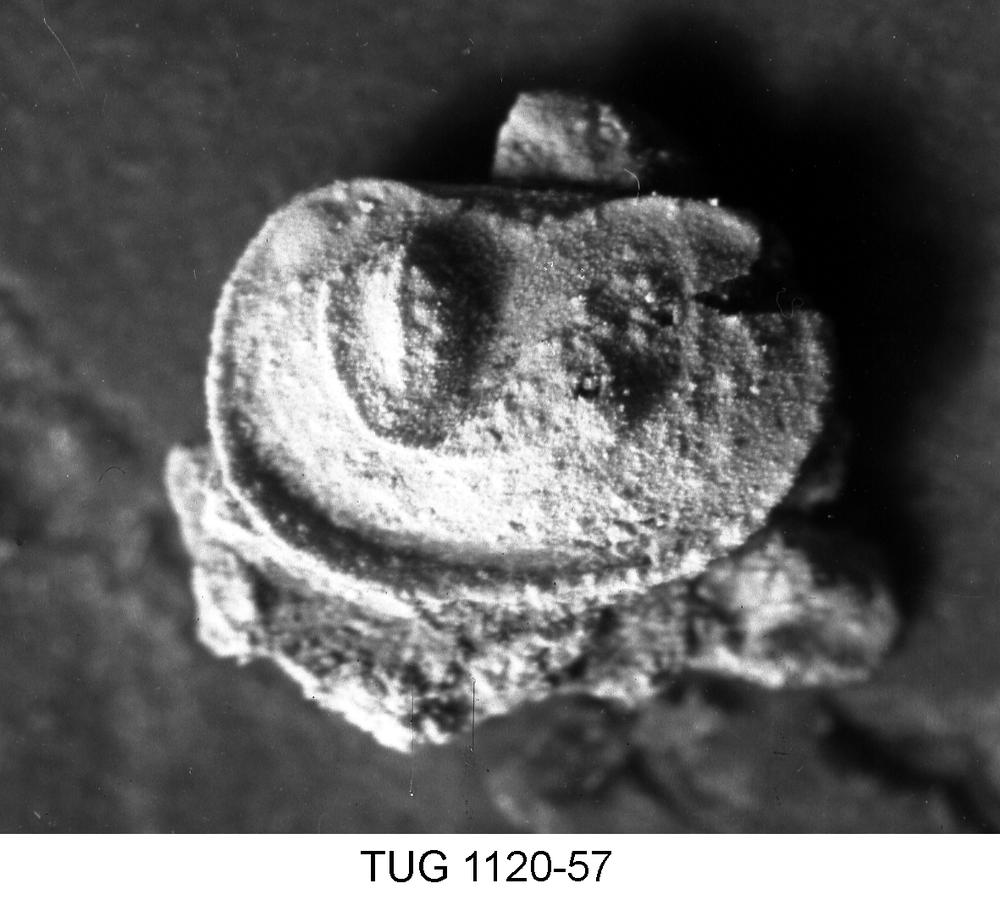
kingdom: Animalia
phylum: Arthropoda
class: Ostracoda
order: Palaeocopida
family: Ctenonotellidae
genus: Steusloffia
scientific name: Steusloffia
